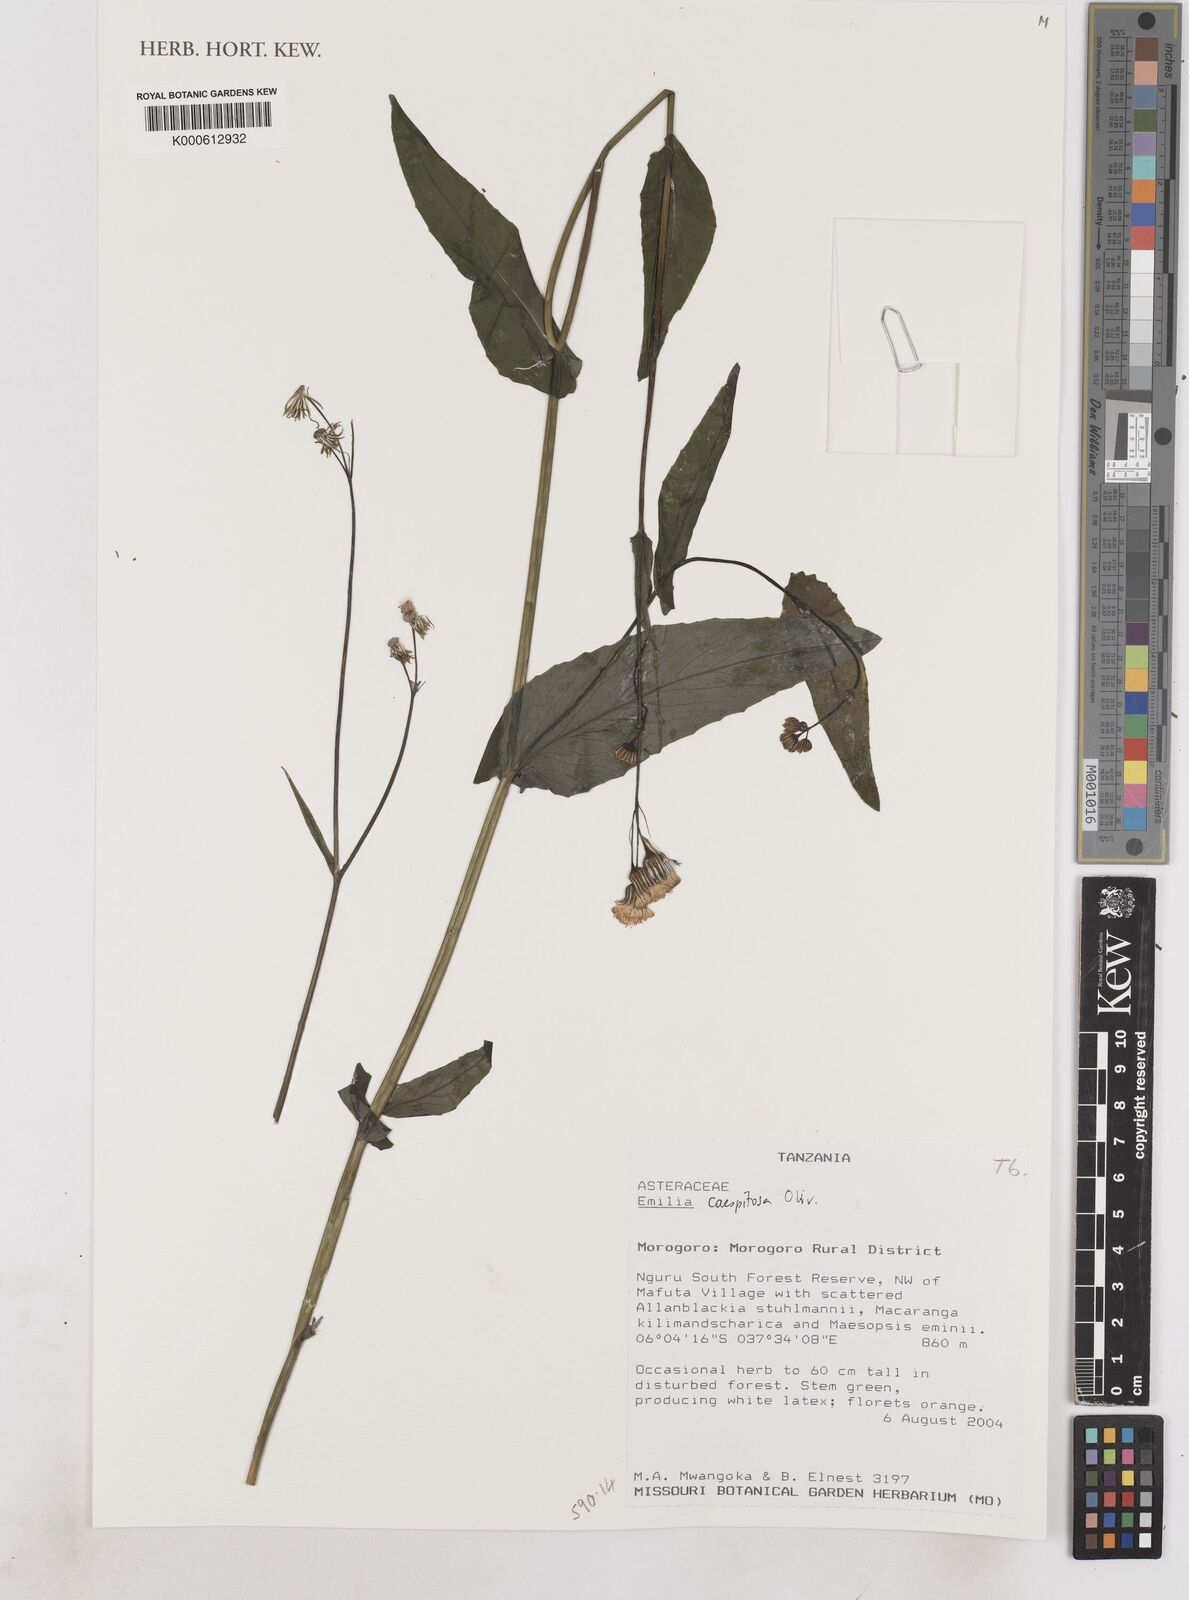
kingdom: Plantae
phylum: Tracheophyta
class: Magnoliopsida
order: Asterales
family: Asteraceae
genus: Emilia
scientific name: Emilia coccinea
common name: Scarlet tasselflower
